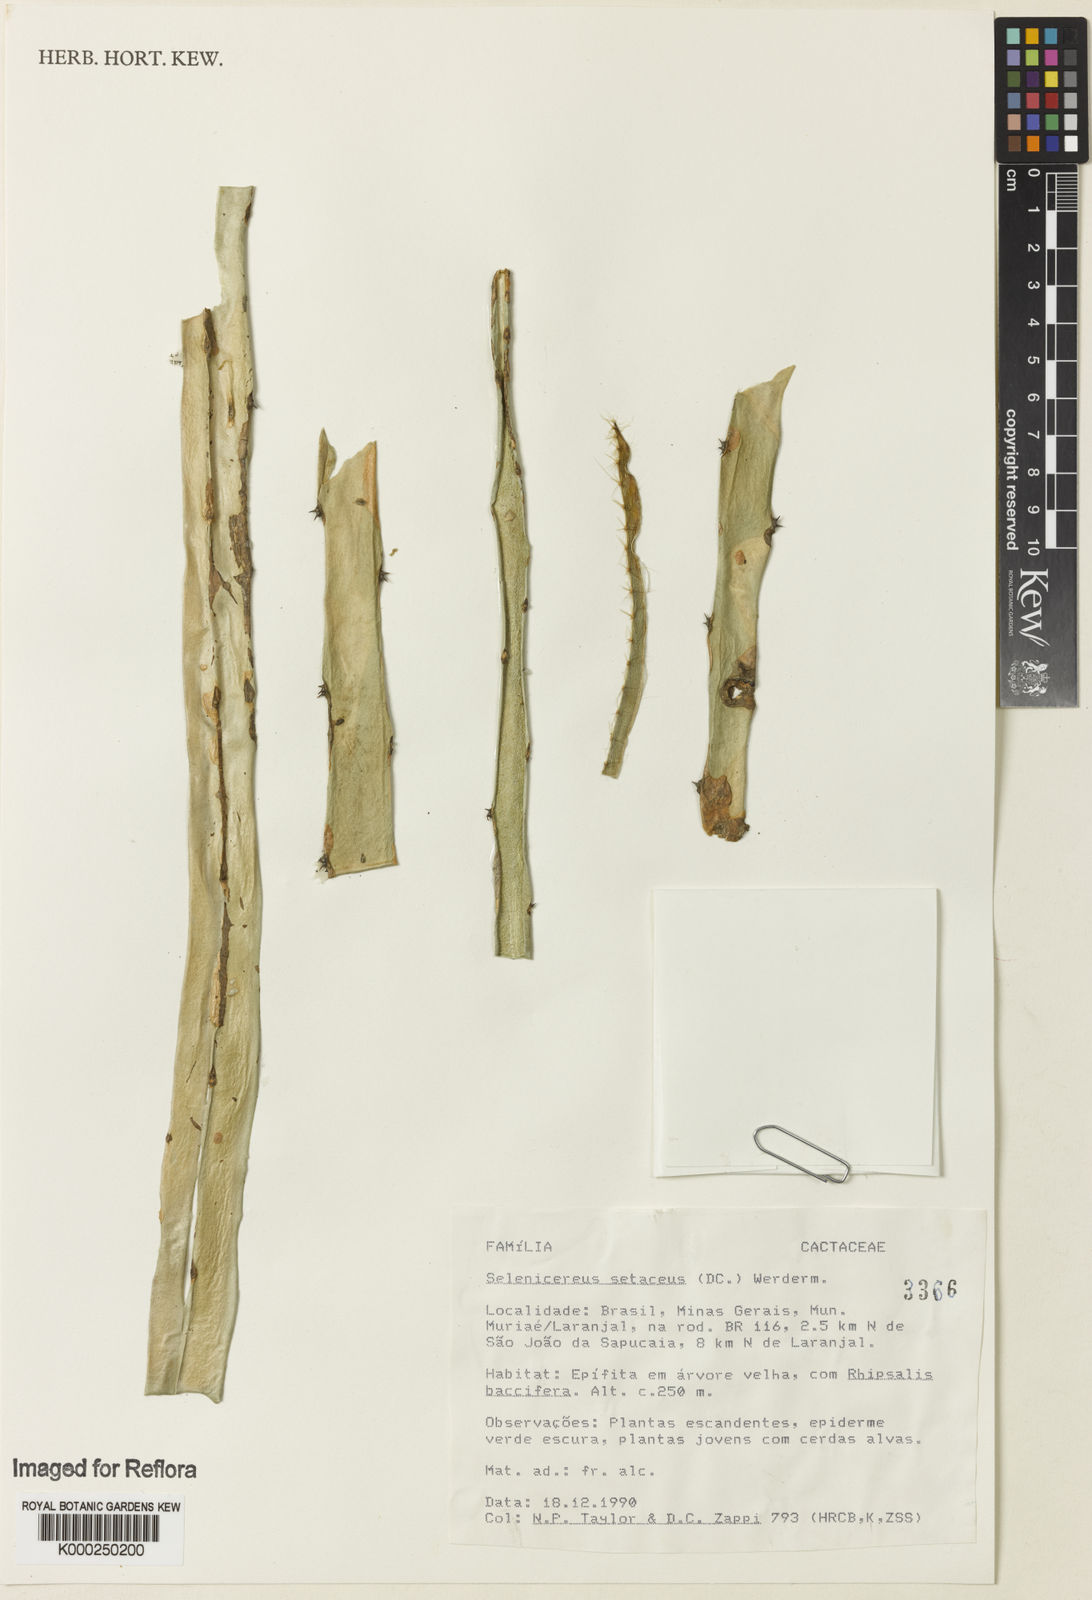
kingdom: Plantae
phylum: Tracheophyta
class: Magnoliopsida
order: Caryophyllales
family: Cactaceae
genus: Selenicereus
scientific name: Selenicereus
